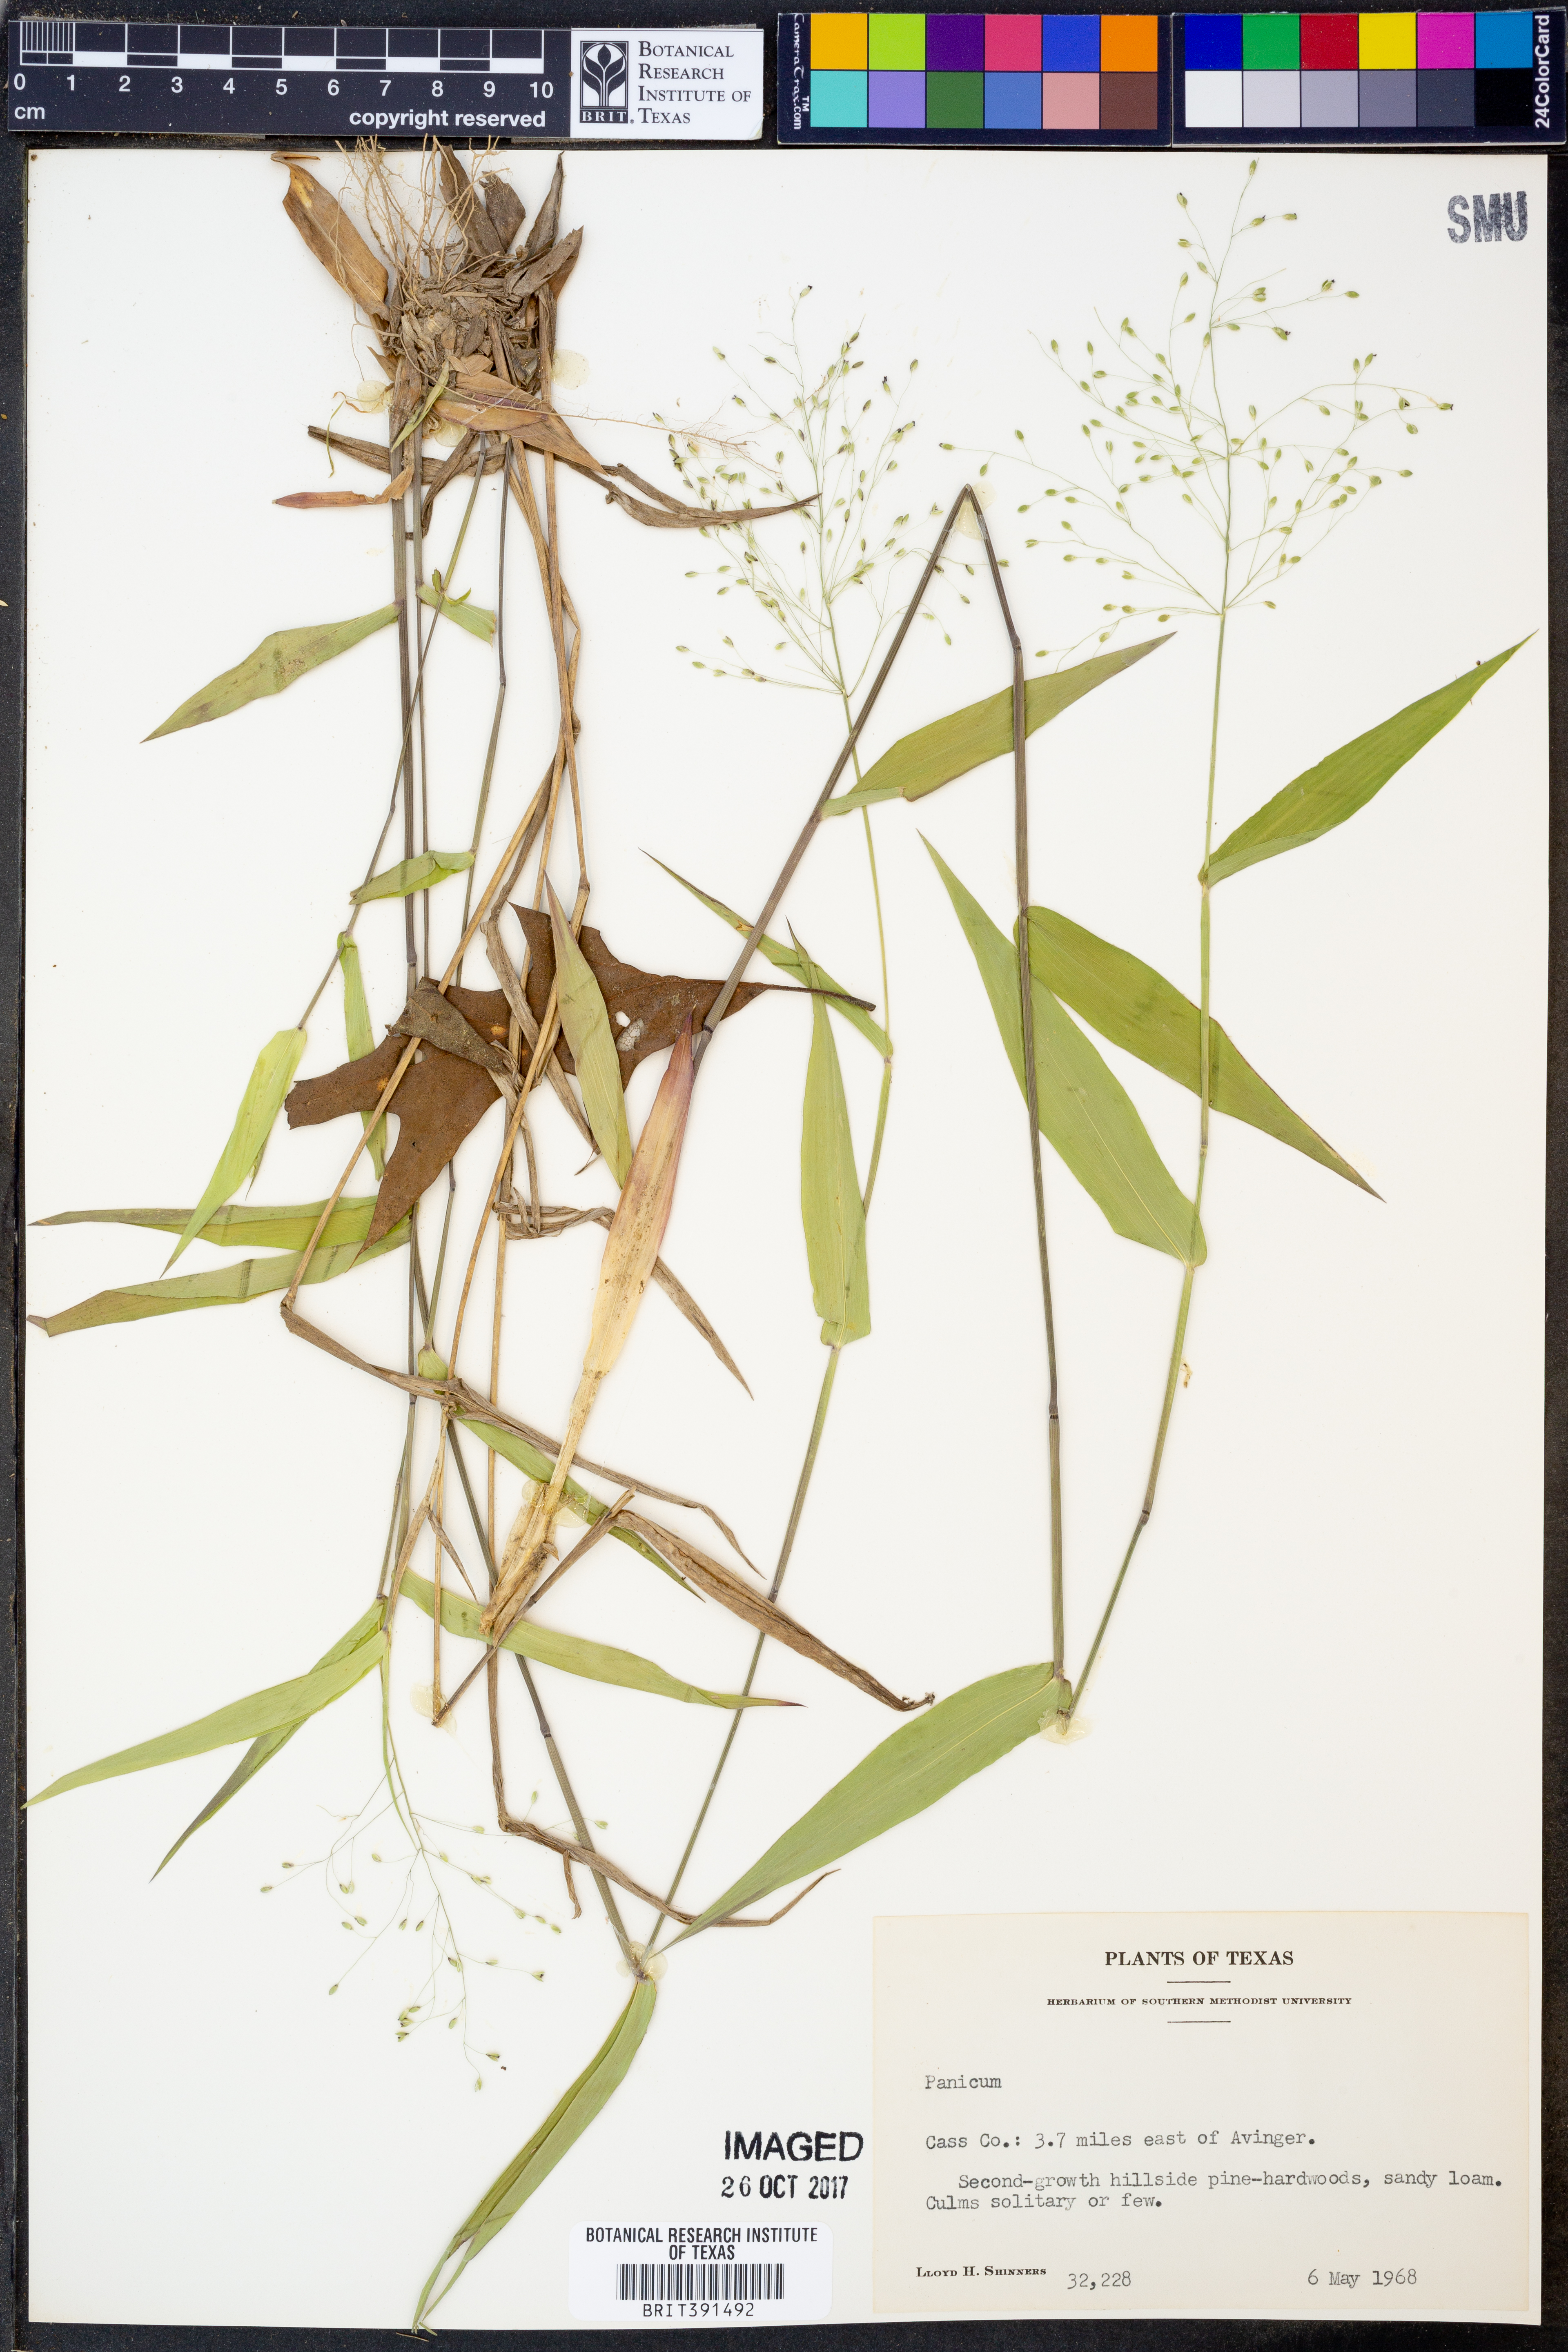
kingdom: Plantae
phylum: Tracheophyta
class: Liliopsida
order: Poales
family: Poaceae
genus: Panicum
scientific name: Panicum
